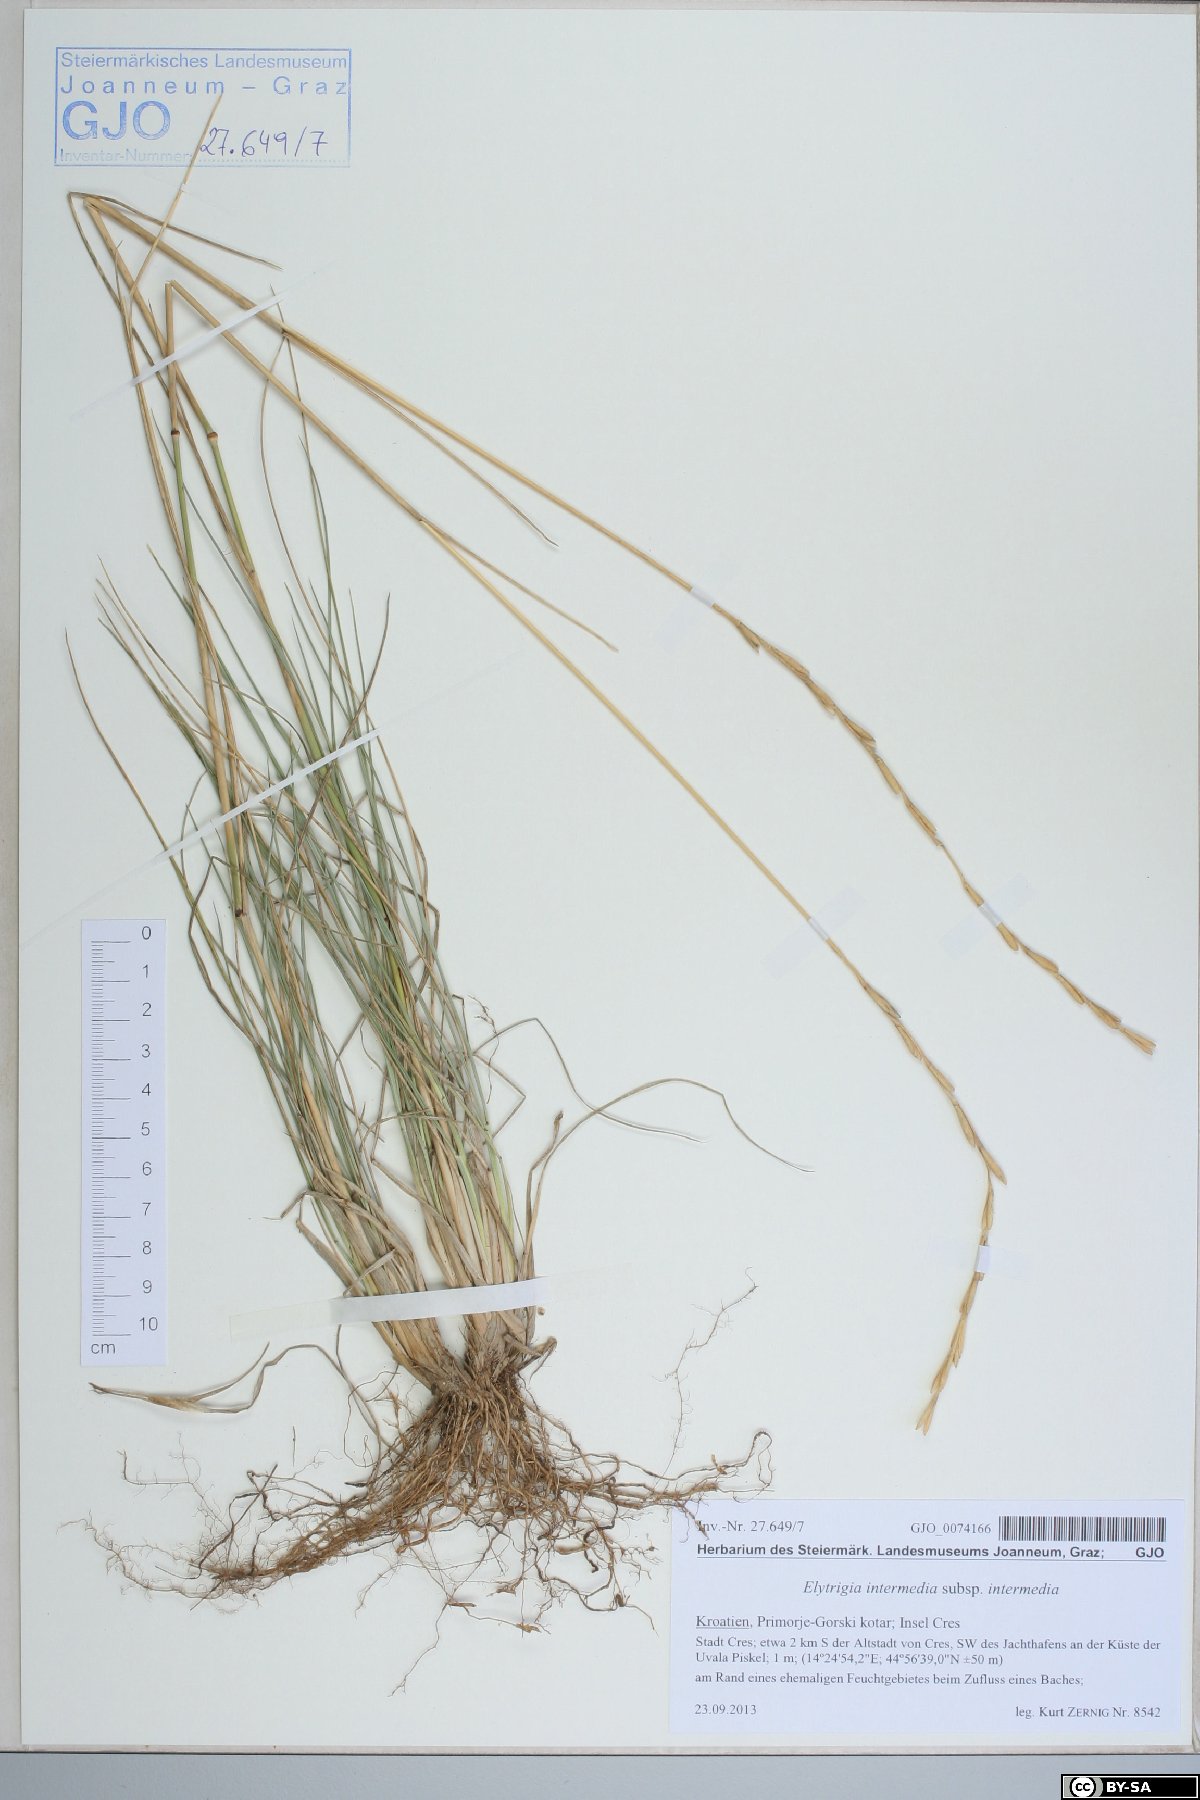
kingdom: Plantae
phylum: Tracheophyta
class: Liliopsida
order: Poales
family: Poaceae
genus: Thinopyrum
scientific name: Thinopyrum intermedium
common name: Intermediate wheatgrass
